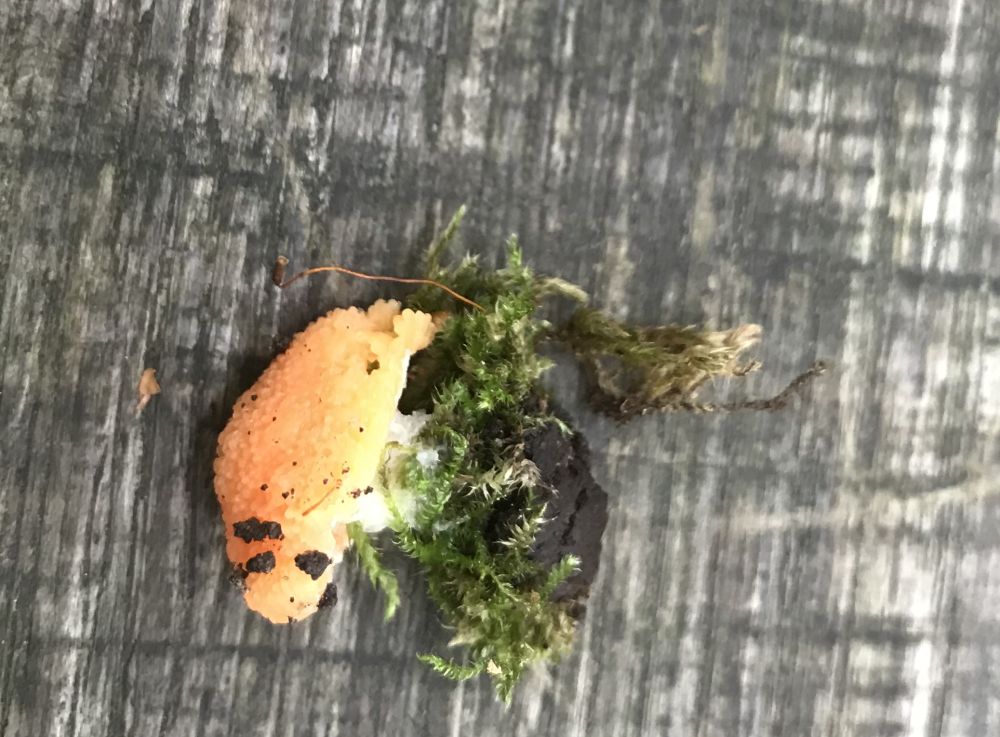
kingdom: Protozoa
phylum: Mycetozoa
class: Myxomycetes
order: Cribrariales
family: Tubiferaceae
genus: Tubifera
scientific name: Tubifera ferruginosa
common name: kanel-støvrør
